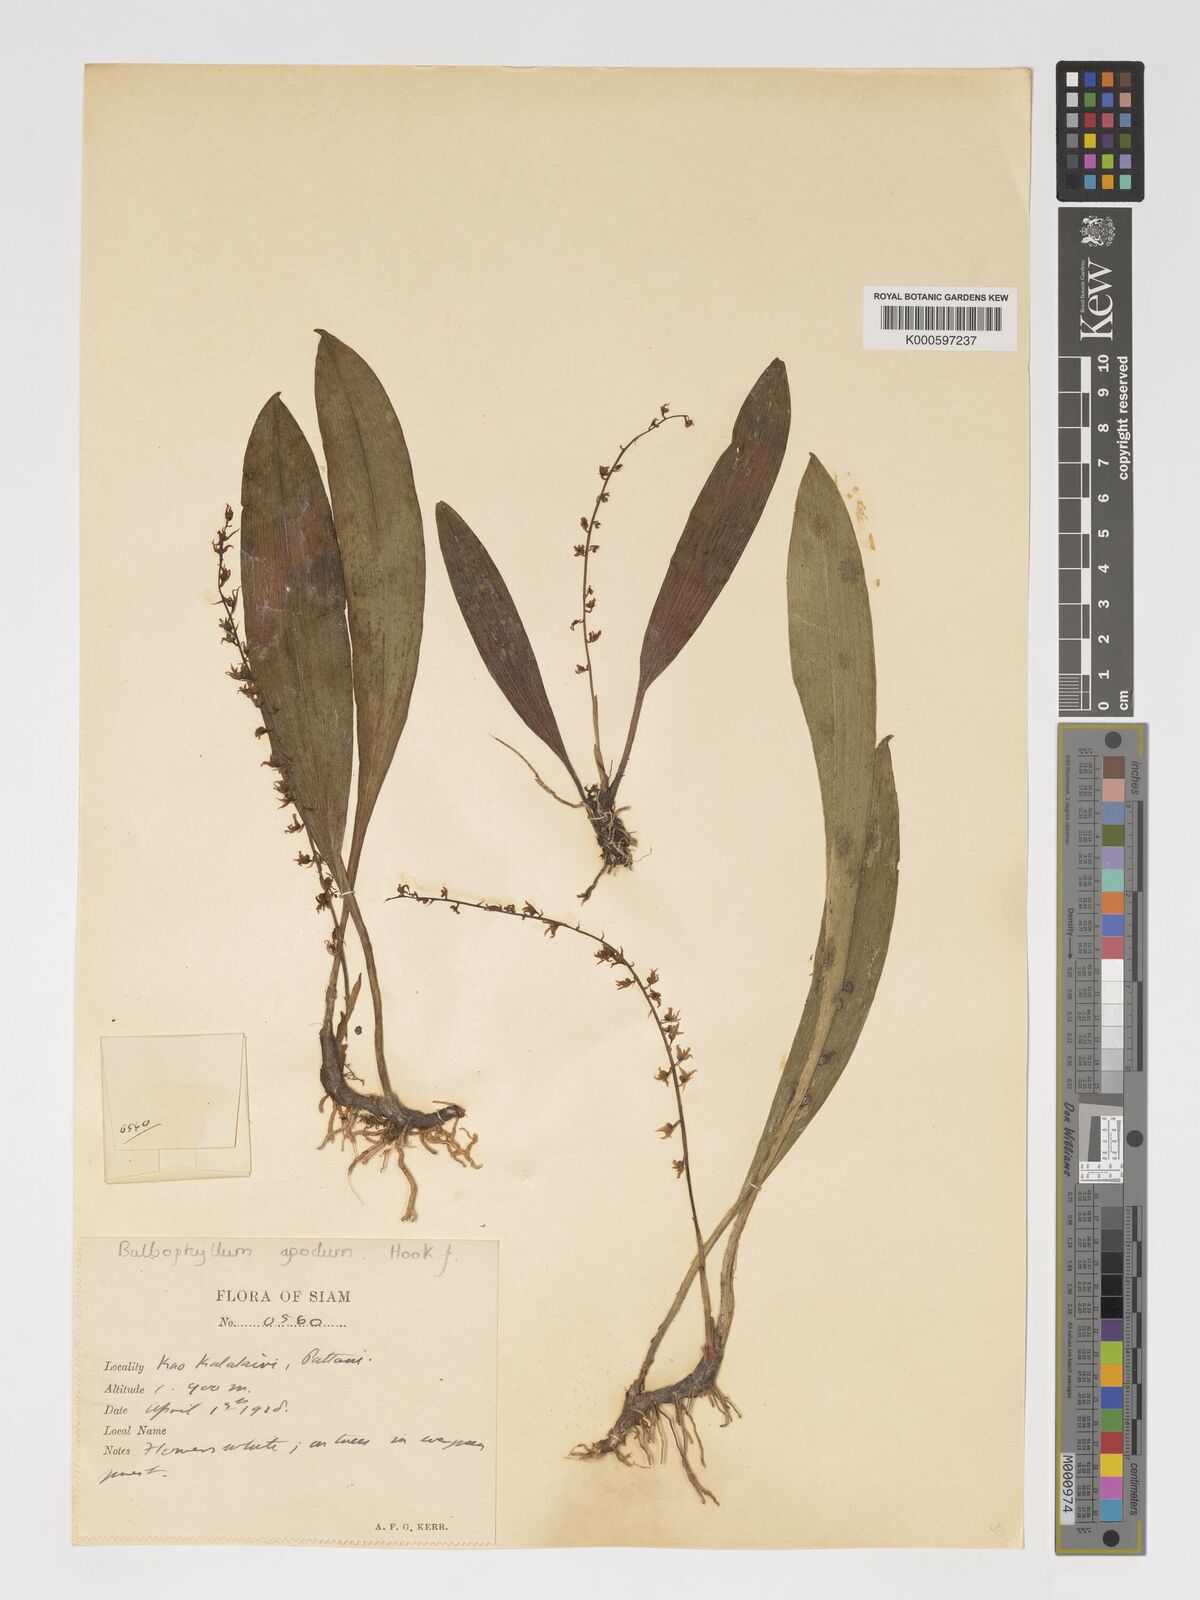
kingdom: Plantae
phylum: Tracheophyta
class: Liliopsida
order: Asparagales
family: Orchidaceae
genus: Bulbophyllum
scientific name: Bulbophyllum apodum
